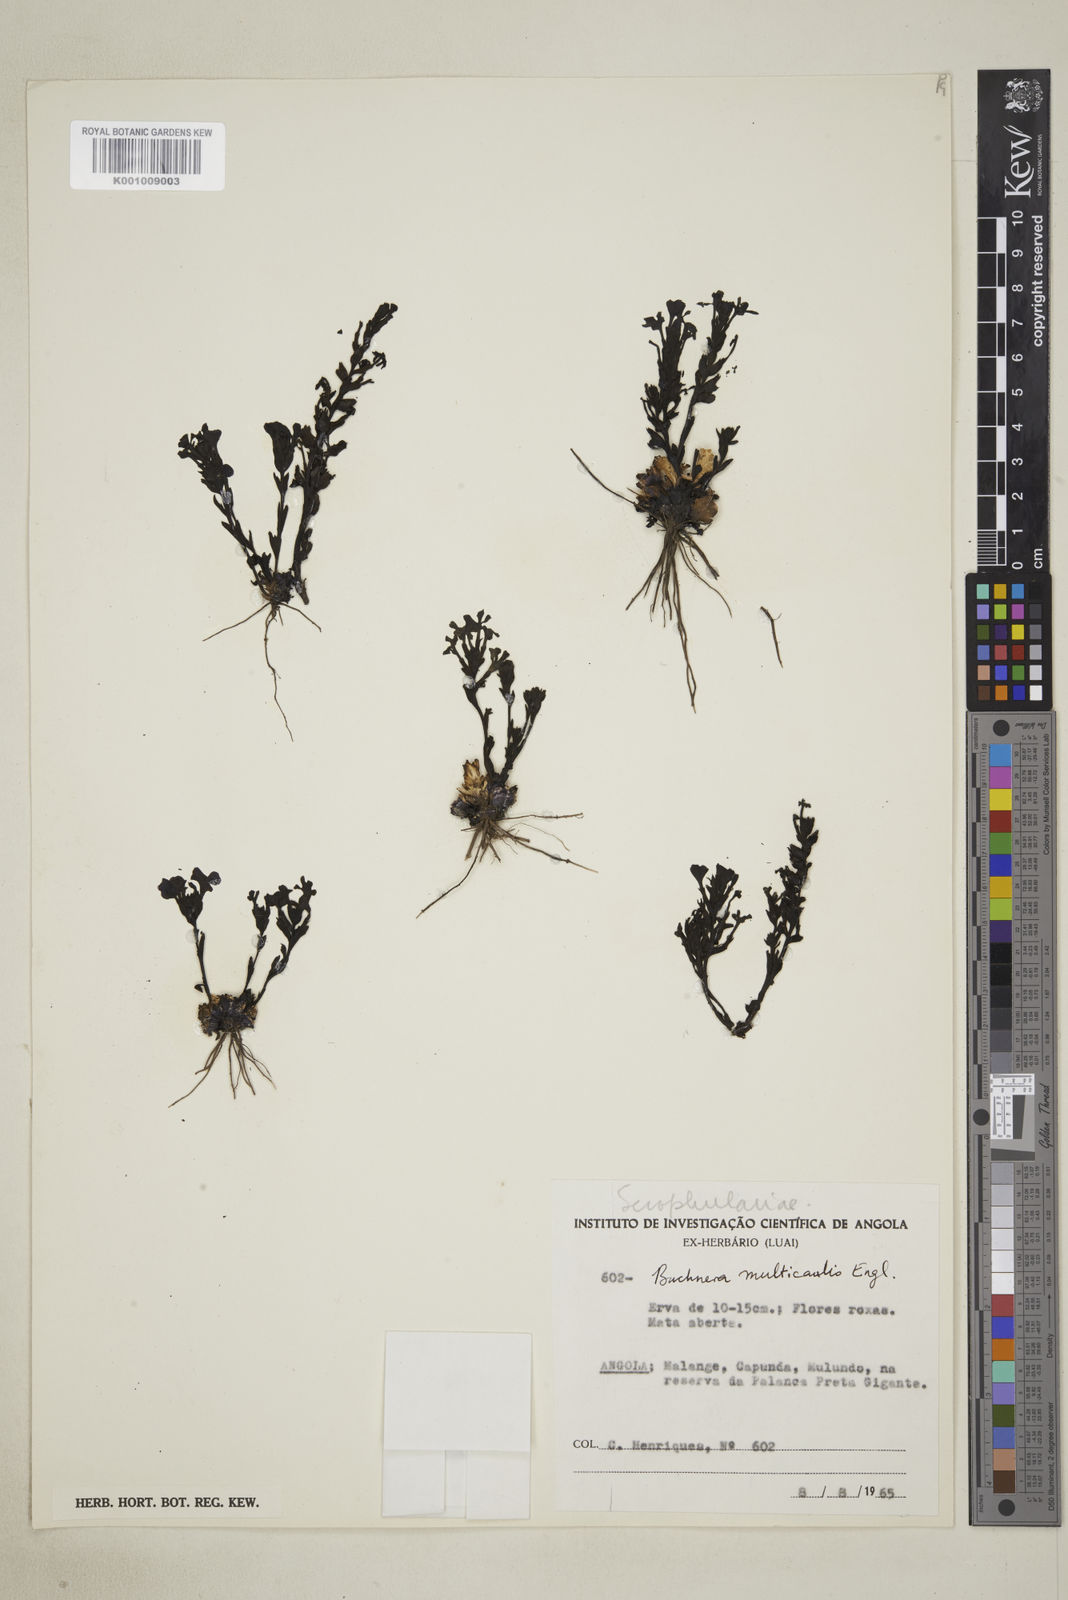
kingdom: Plantae
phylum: Tracheophyta
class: Magnoliopsida
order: Lamiales
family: Orobanchaceae
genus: Buchnera
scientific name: Buchnera multicaulis
